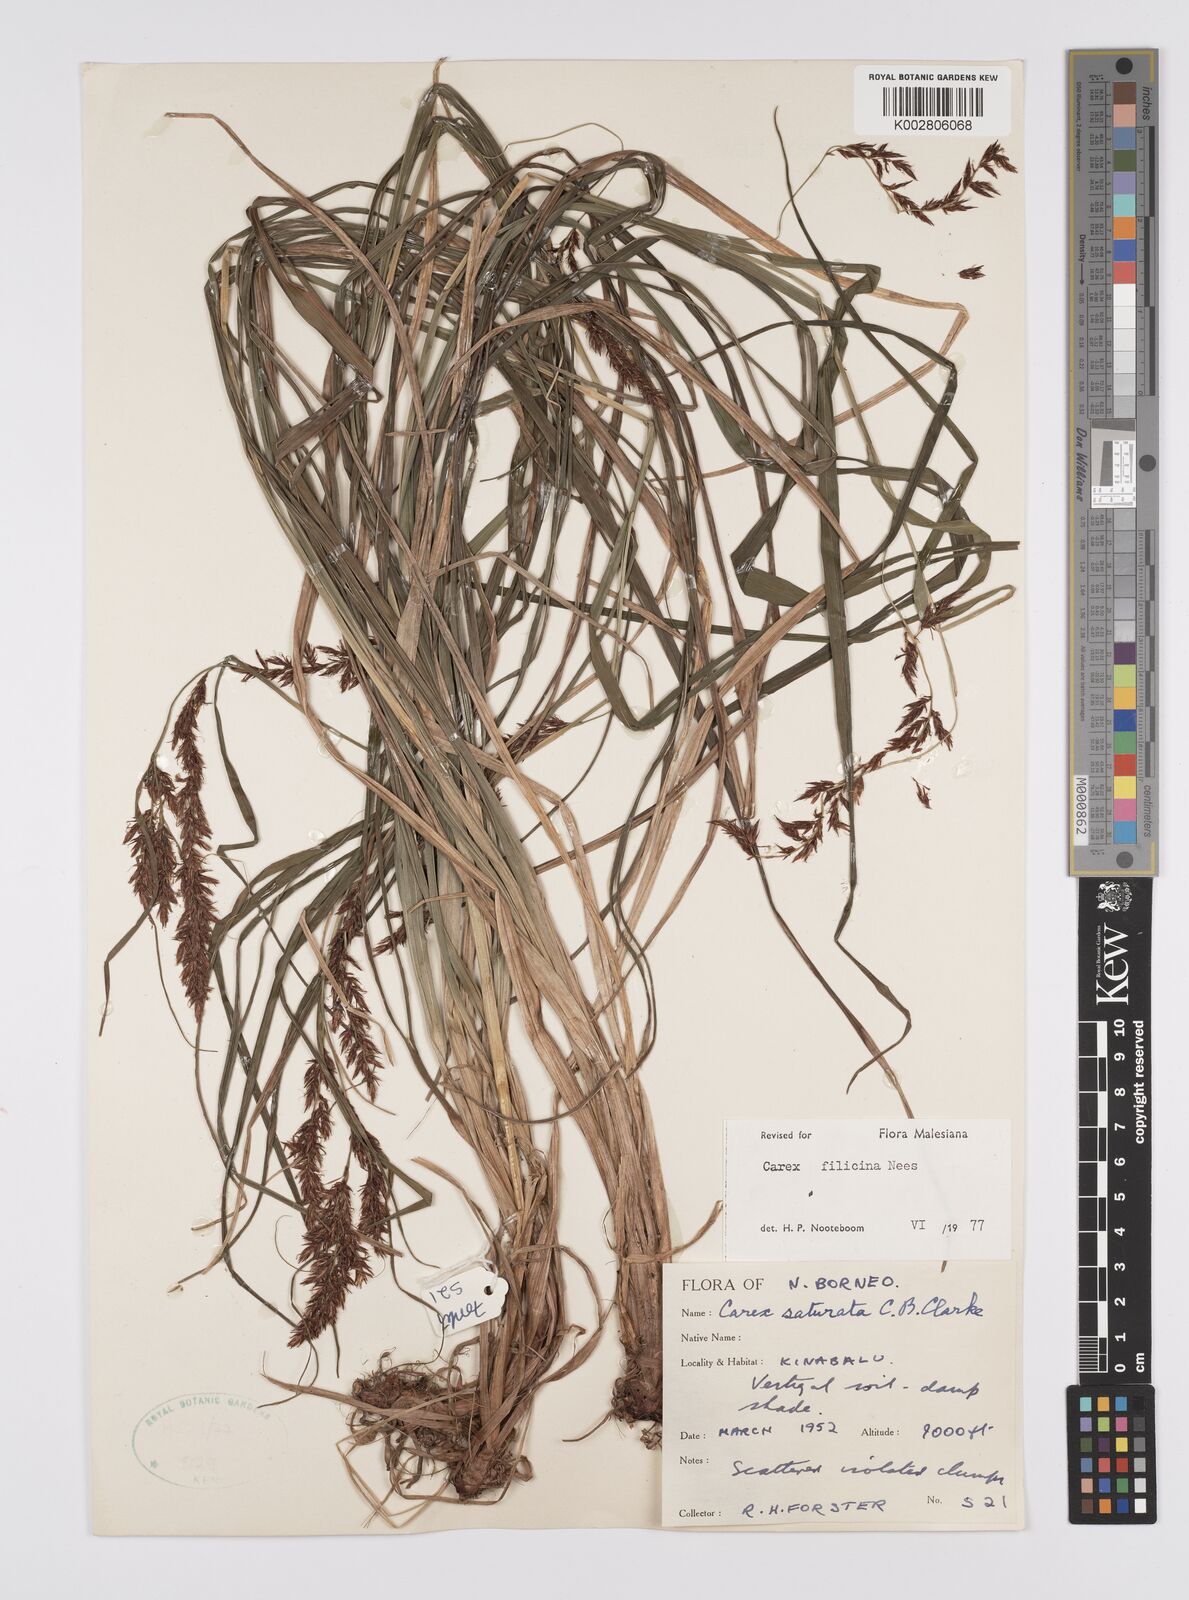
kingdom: Plantae
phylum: Tracheophyta
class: Liliopsida
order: Poales
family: Cyperaceae
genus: Carex
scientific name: Carex filicina
